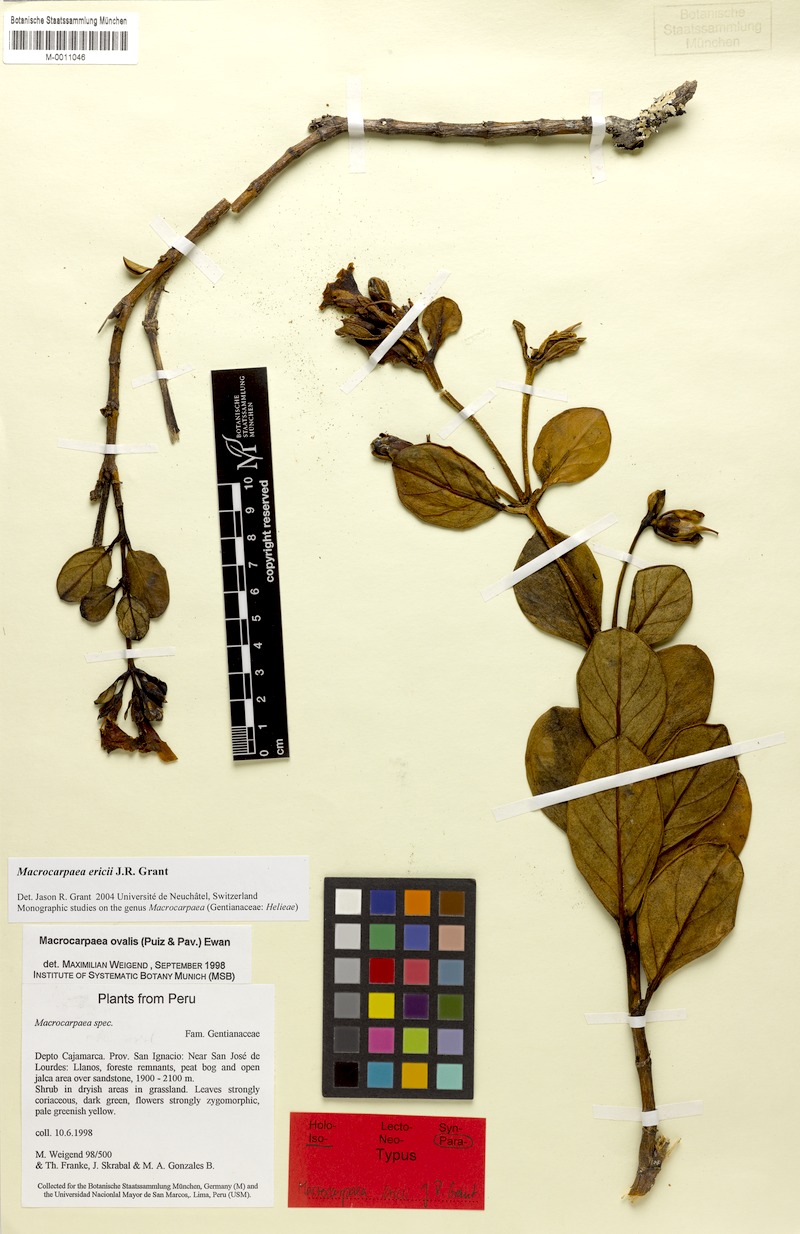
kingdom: Plantae
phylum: Tracheophyta
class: Magnoliopsida
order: Gentianales
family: Gentianaceae
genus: Macrocarpaea
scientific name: Macrocarpaea ericii
